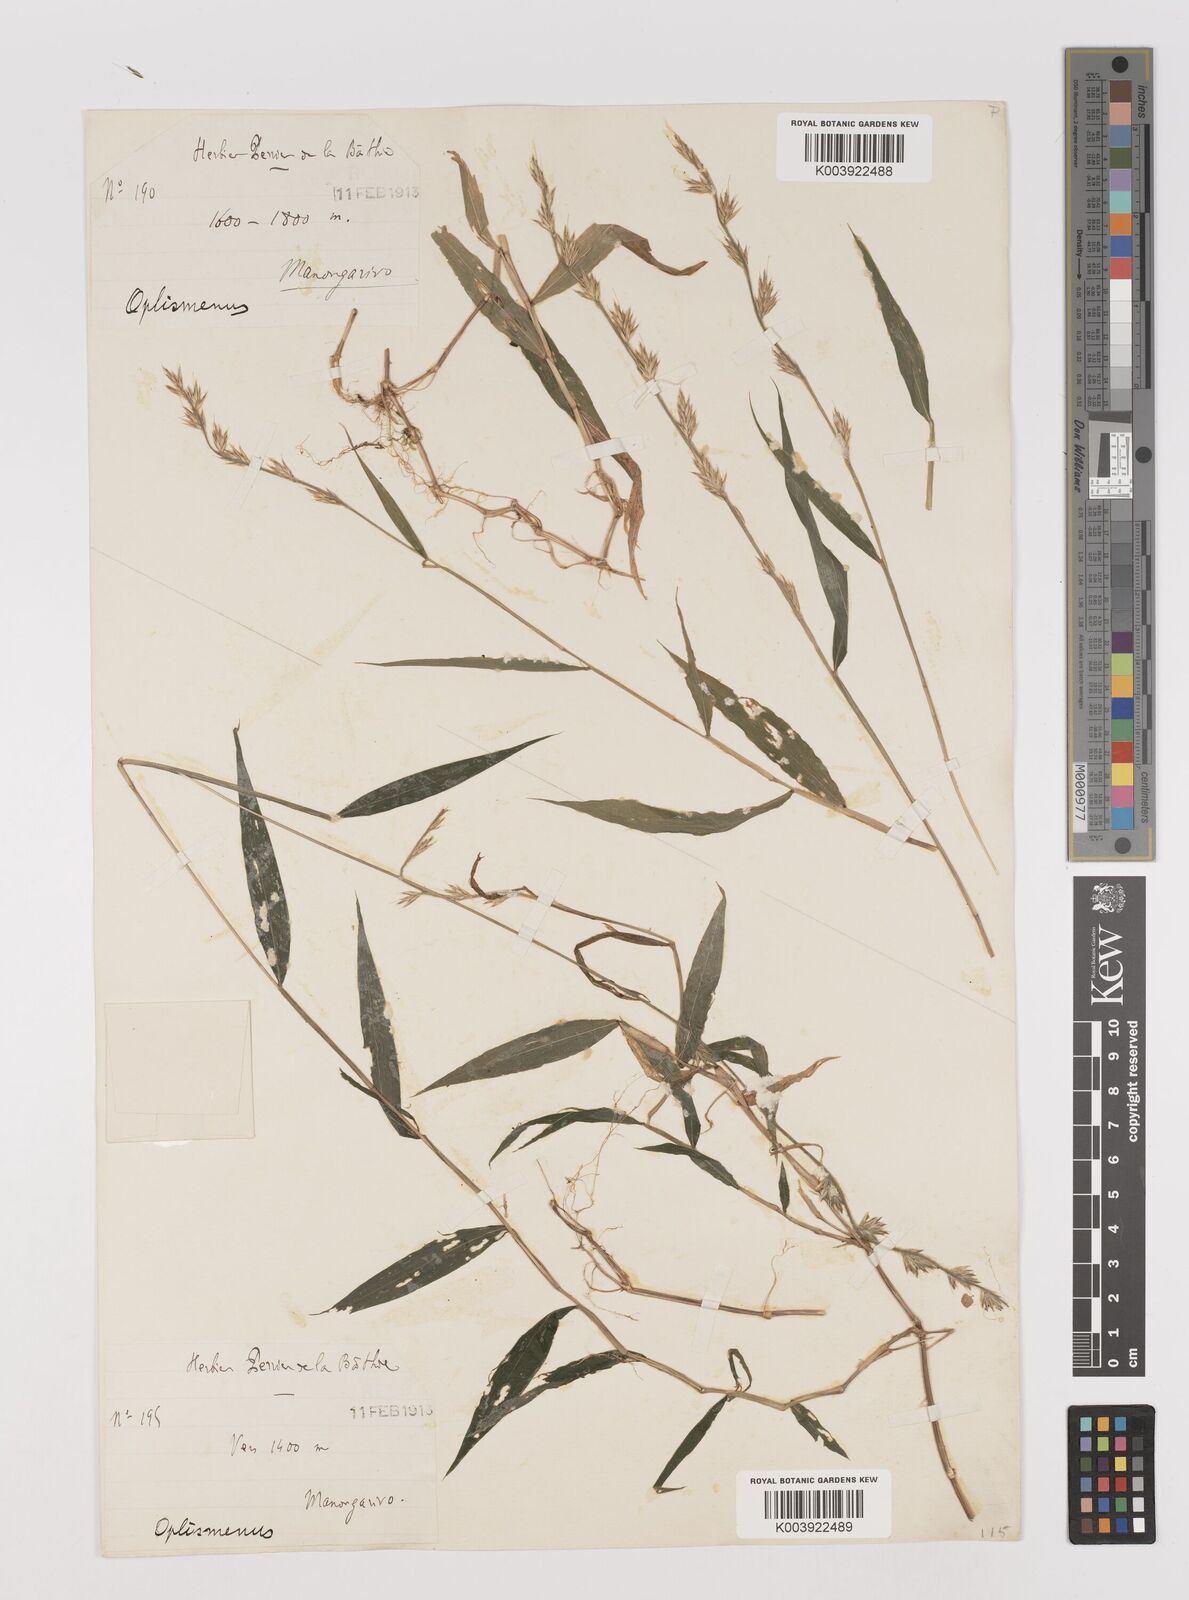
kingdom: Plantae
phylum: Tracheophyta
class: Liliopsida
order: Poales
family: Poaceae
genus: Poecilostachys
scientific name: Poecilostachys tsaratananensis
